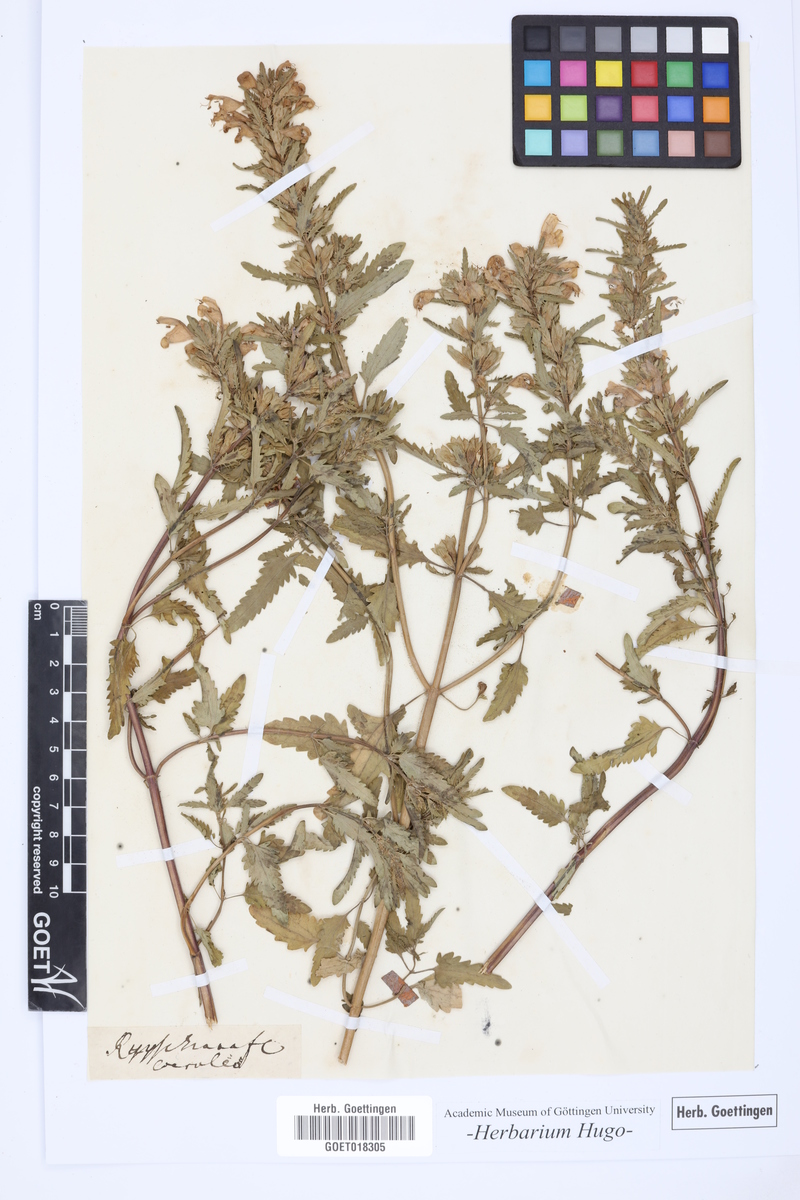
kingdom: Plantae
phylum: Tracheophyta
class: Magnoliopsida
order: Lamiales
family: Lamiaceae
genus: Dracocephalum
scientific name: Dracocephalum
